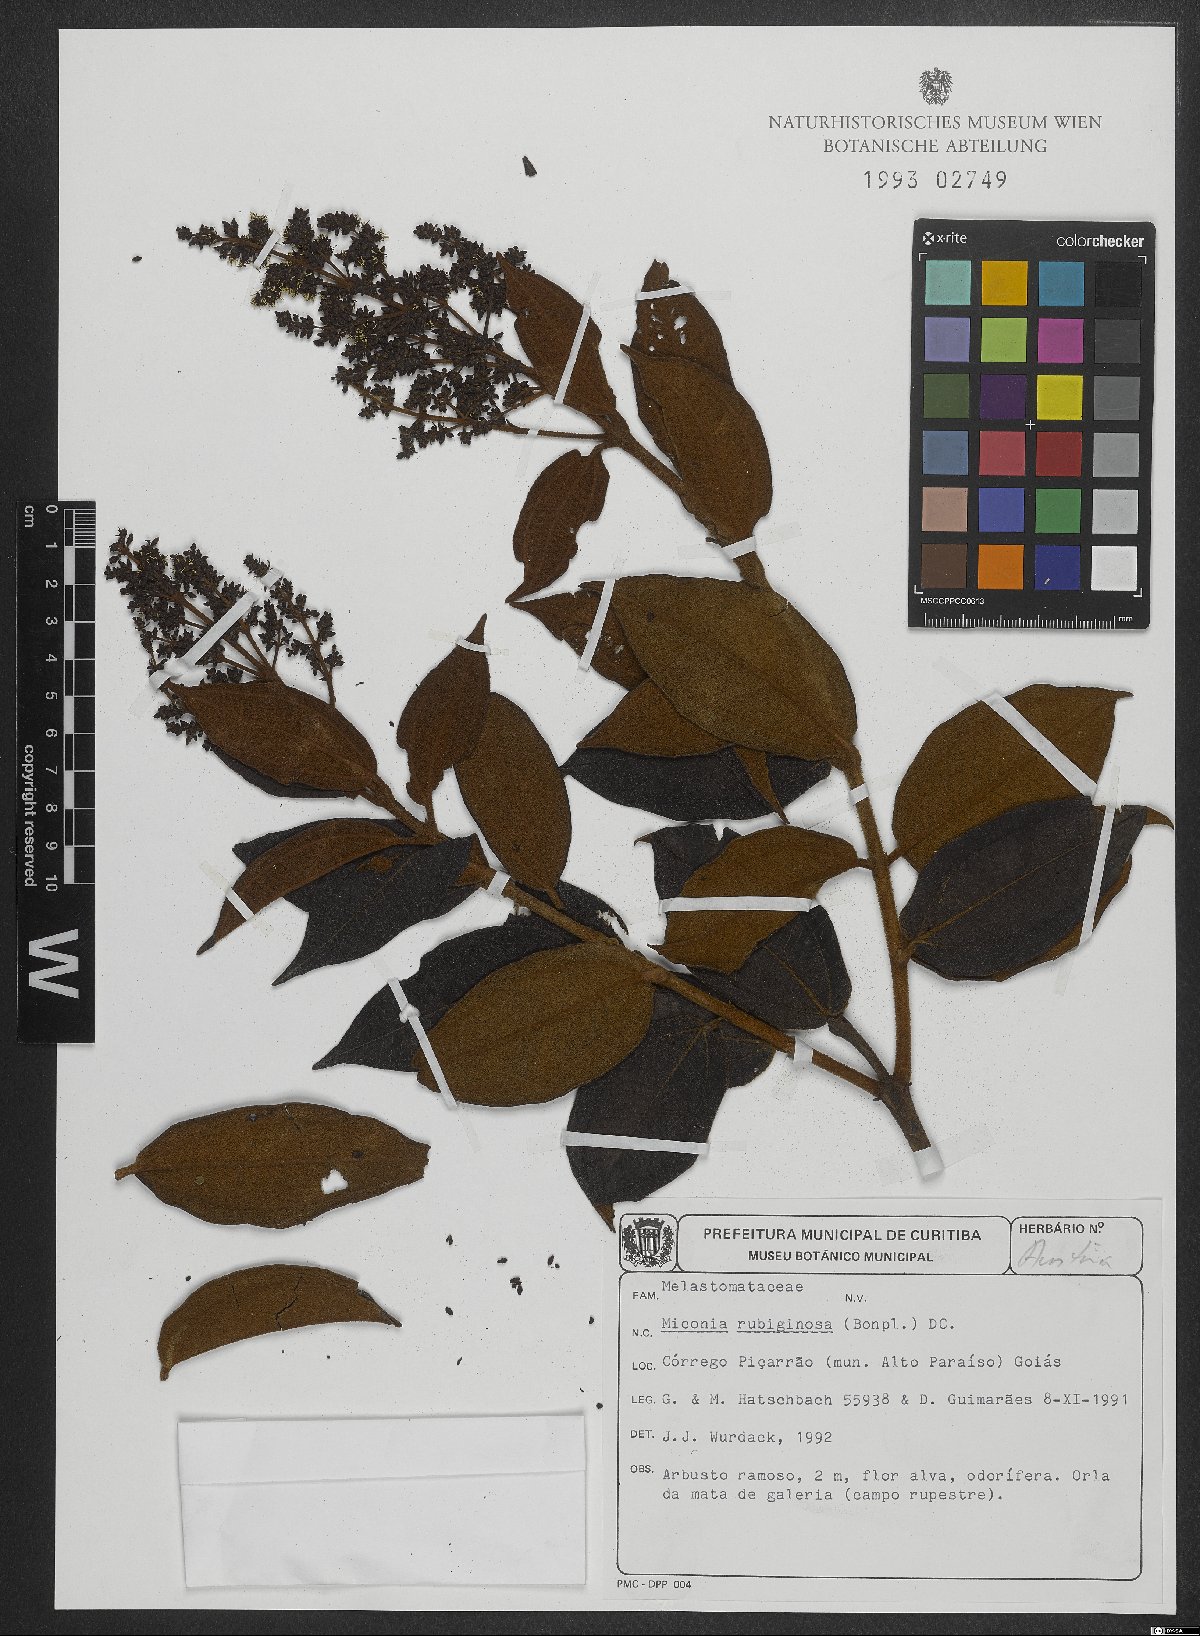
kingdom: Plantae
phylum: Tracheophyta
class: Magnoliopsida
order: Myrtales
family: Melastomataceae
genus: Miconia
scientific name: Miconia rubiginosa
